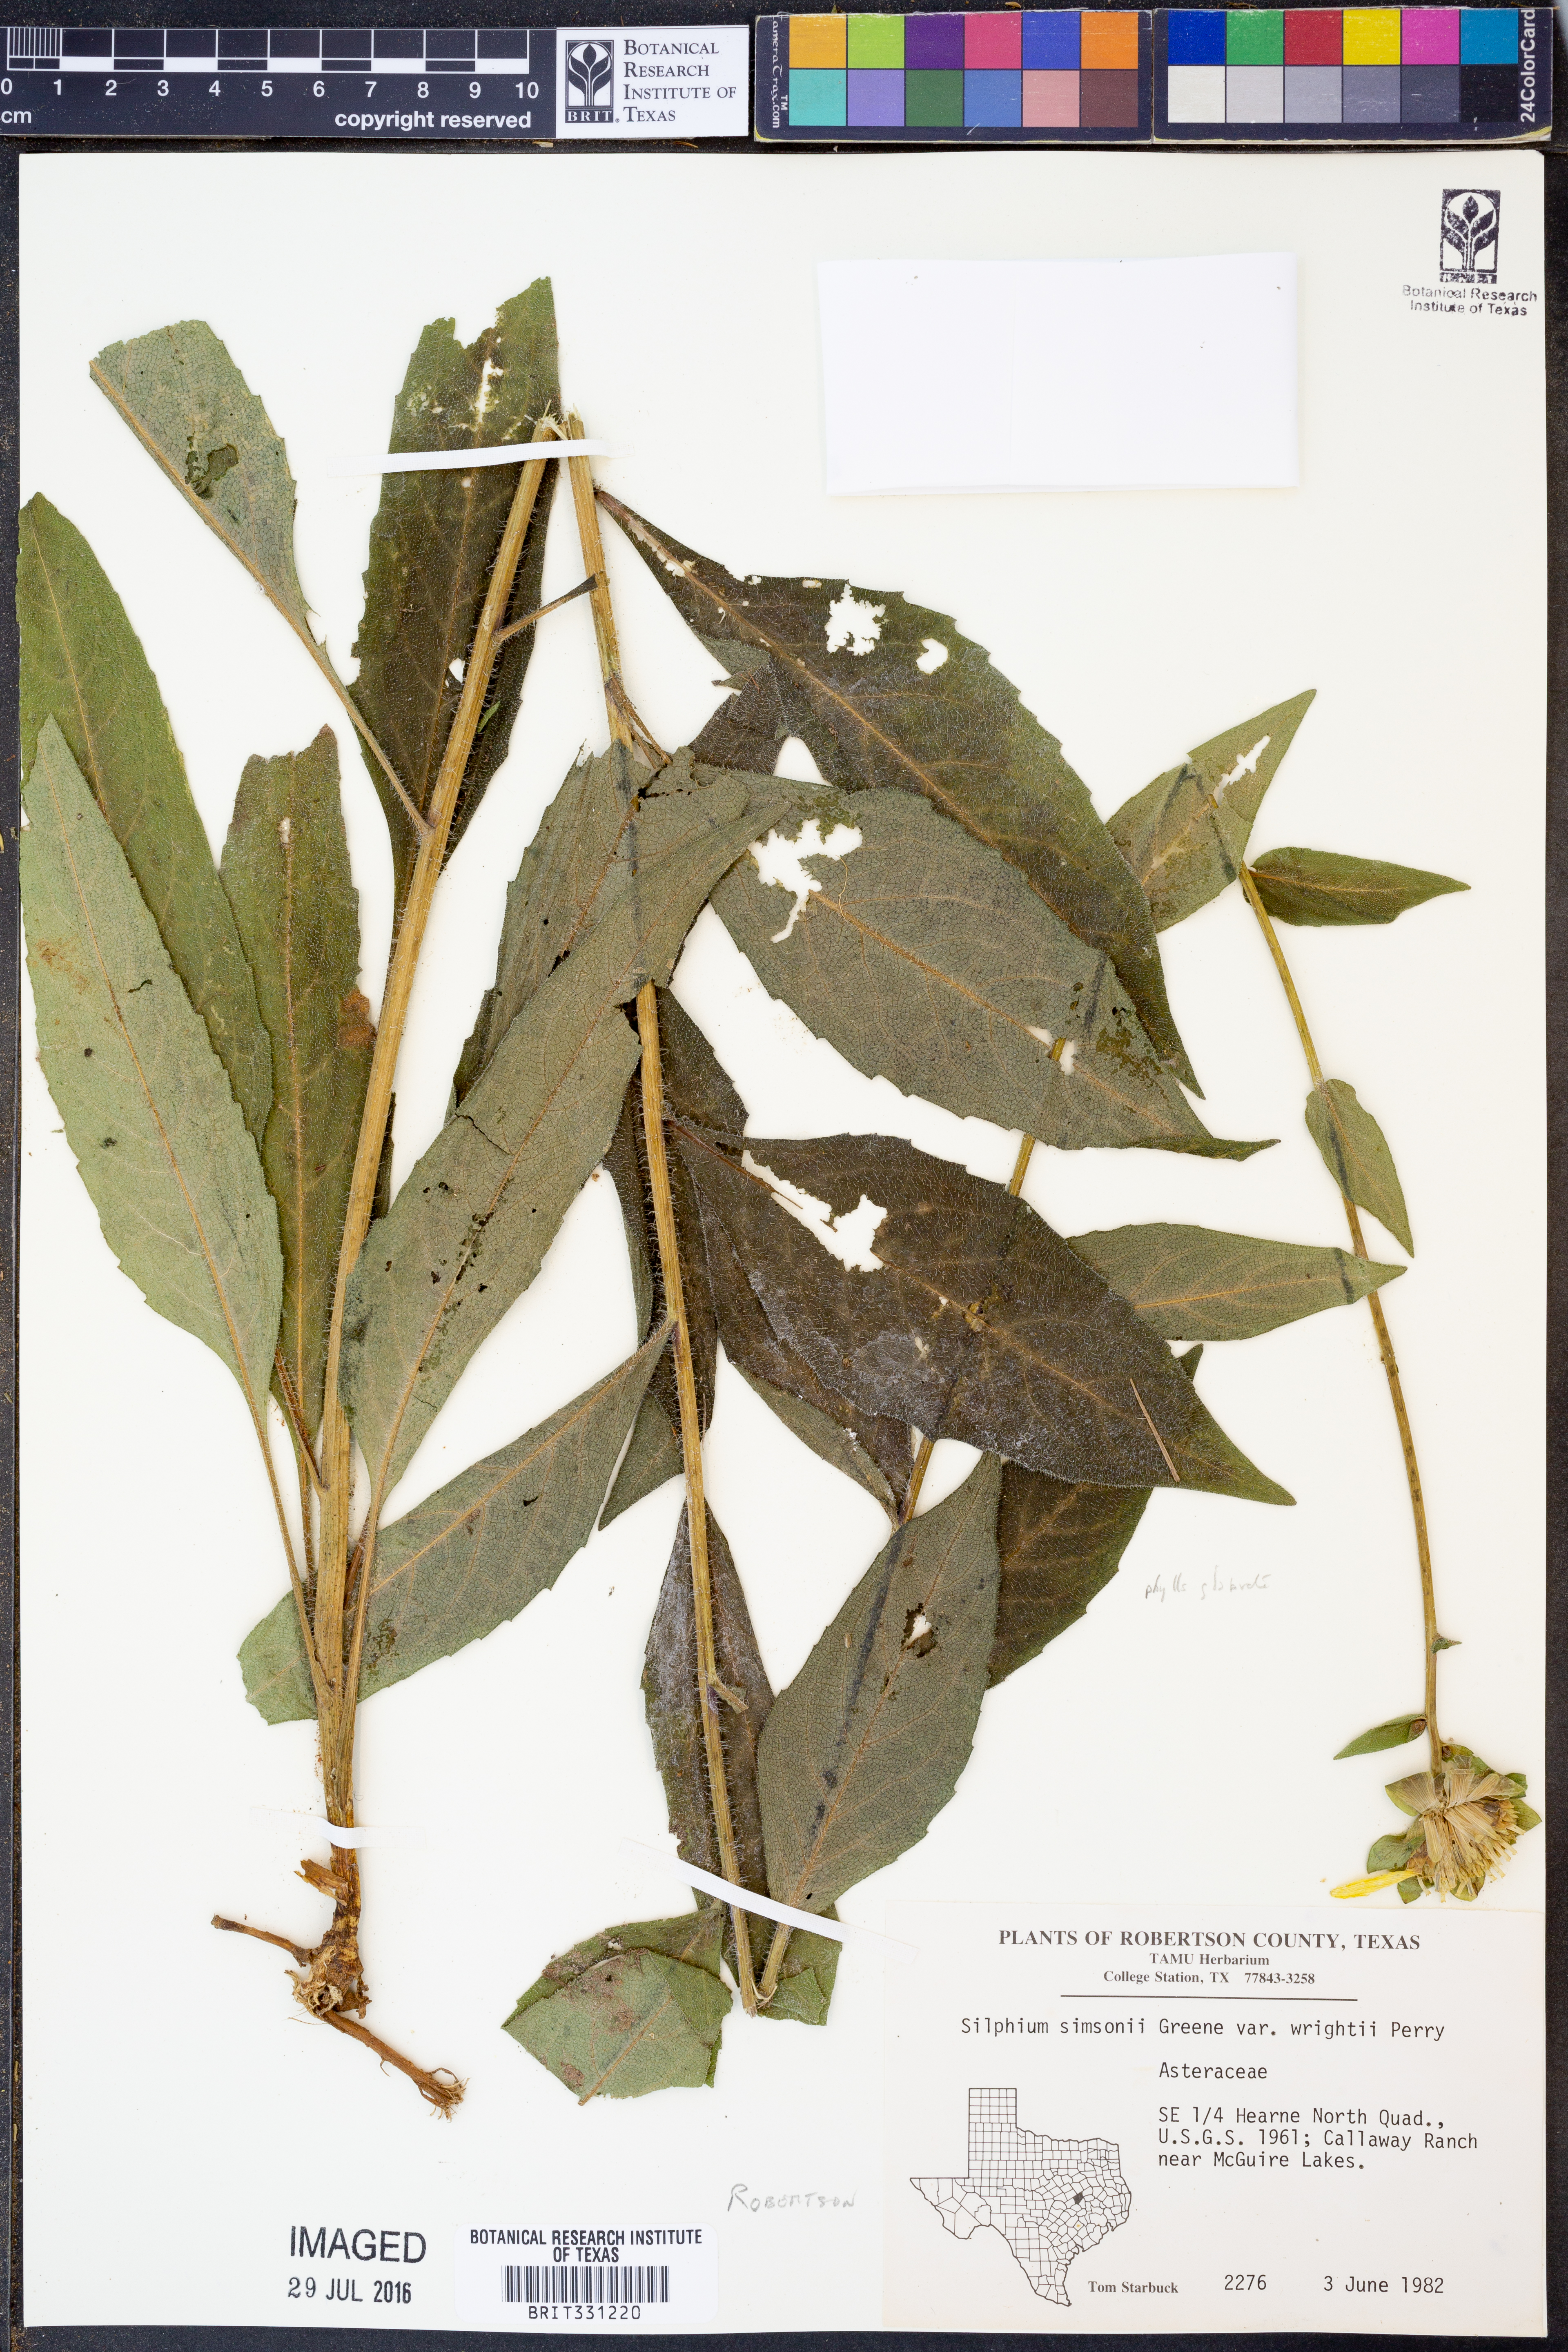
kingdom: Plantae
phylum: Tracheophyta
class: Magnoliopsida
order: Asterales
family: Asteraceae
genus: Silphium
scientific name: Silphium radula
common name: Roughleaf rosinweed
